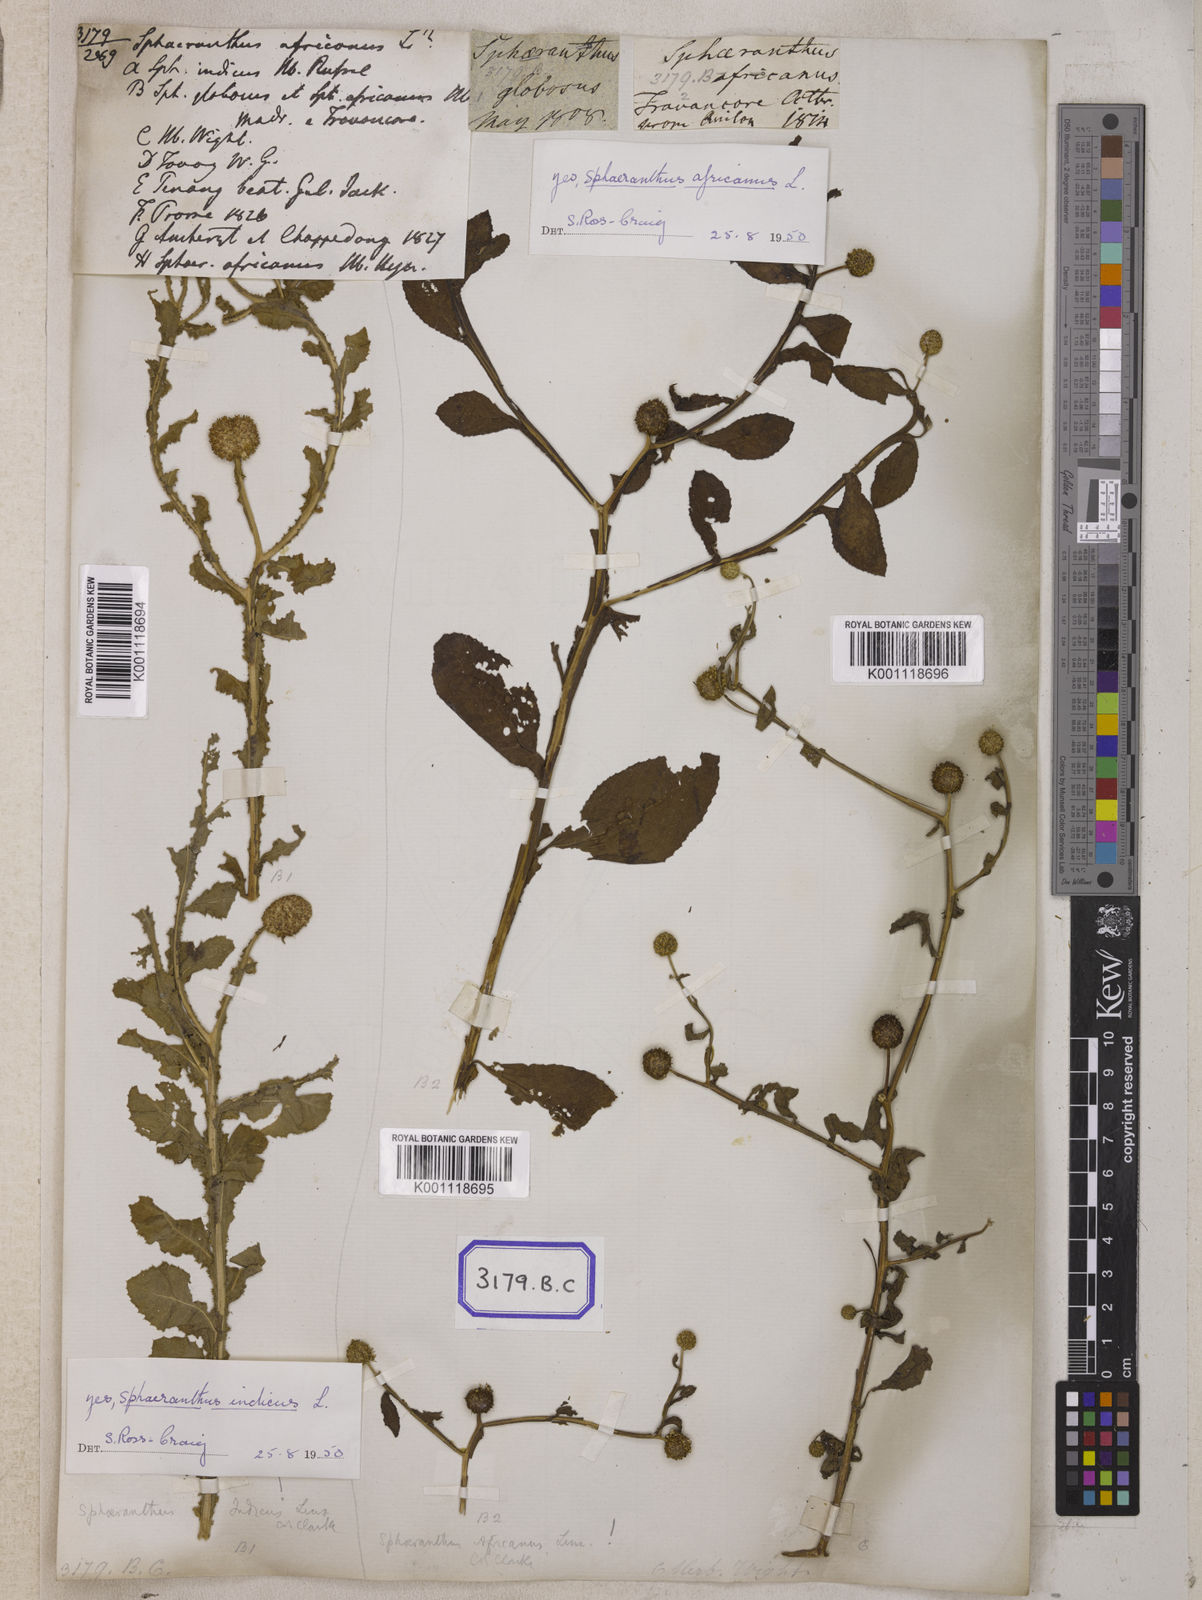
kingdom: Plantae
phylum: Tracheophyta
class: Magnoliopsida
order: Asterales
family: Asteraceae
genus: Sphaeranthus
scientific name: Sphaeranthus senegalensis
